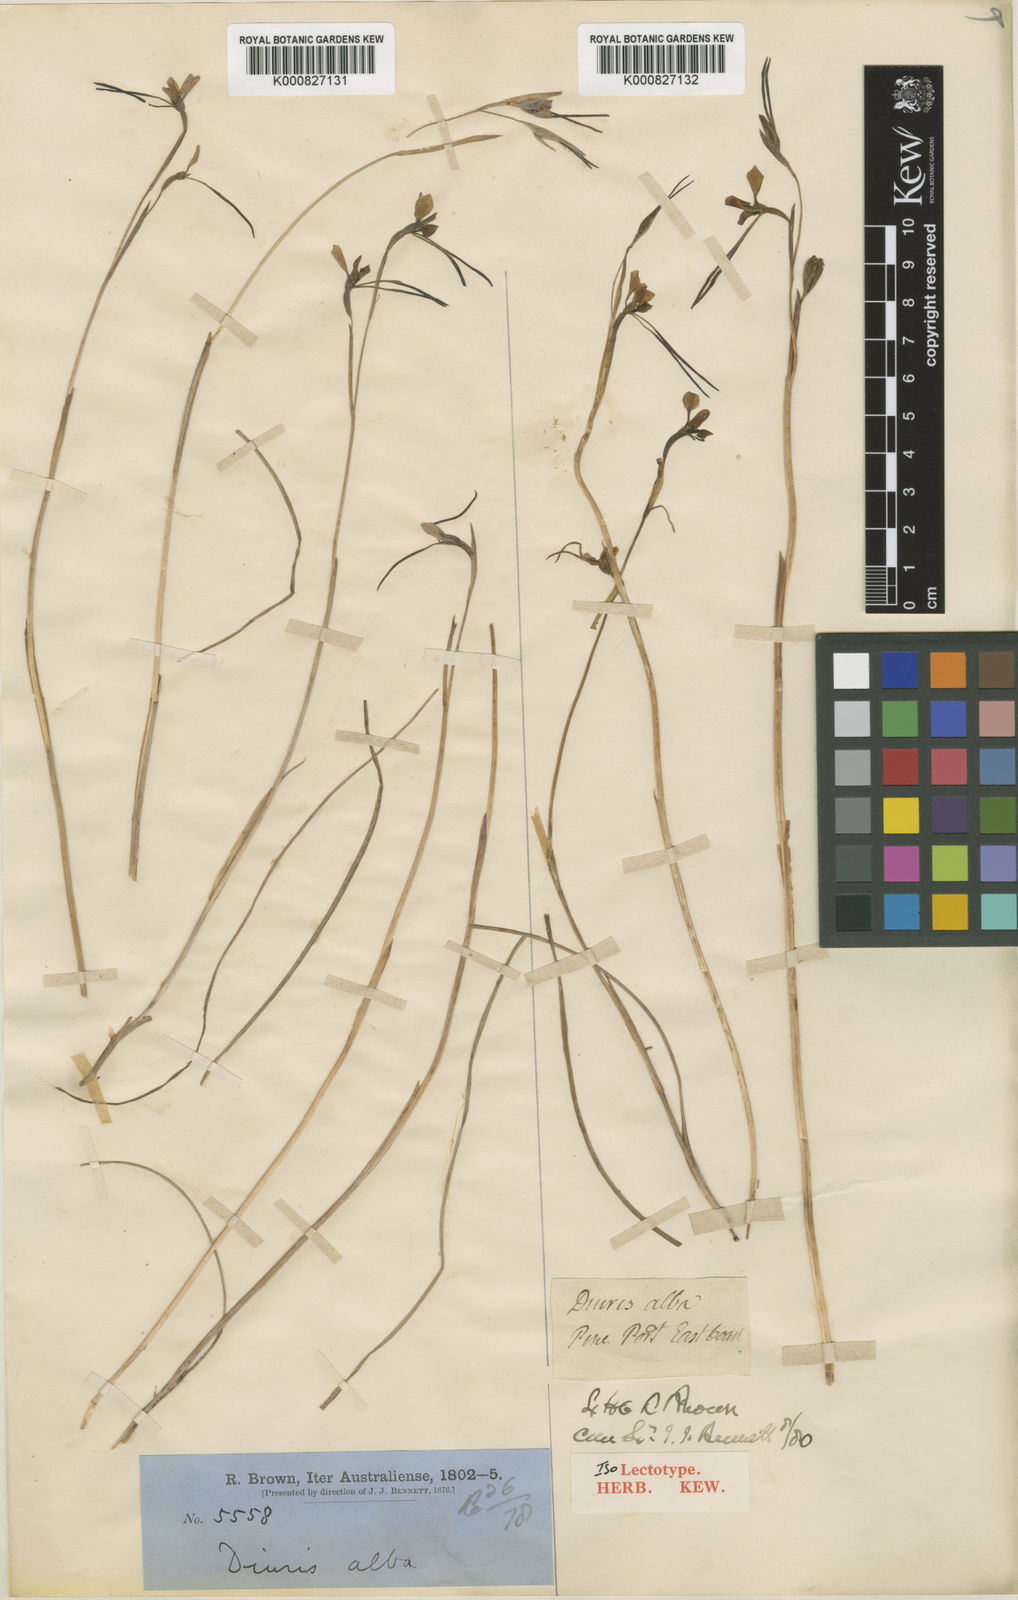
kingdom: Plantae
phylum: Tracheophyta
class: Liliopsida
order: Asparagales
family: Orchidaceae
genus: Diuris
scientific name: Diuris alba
